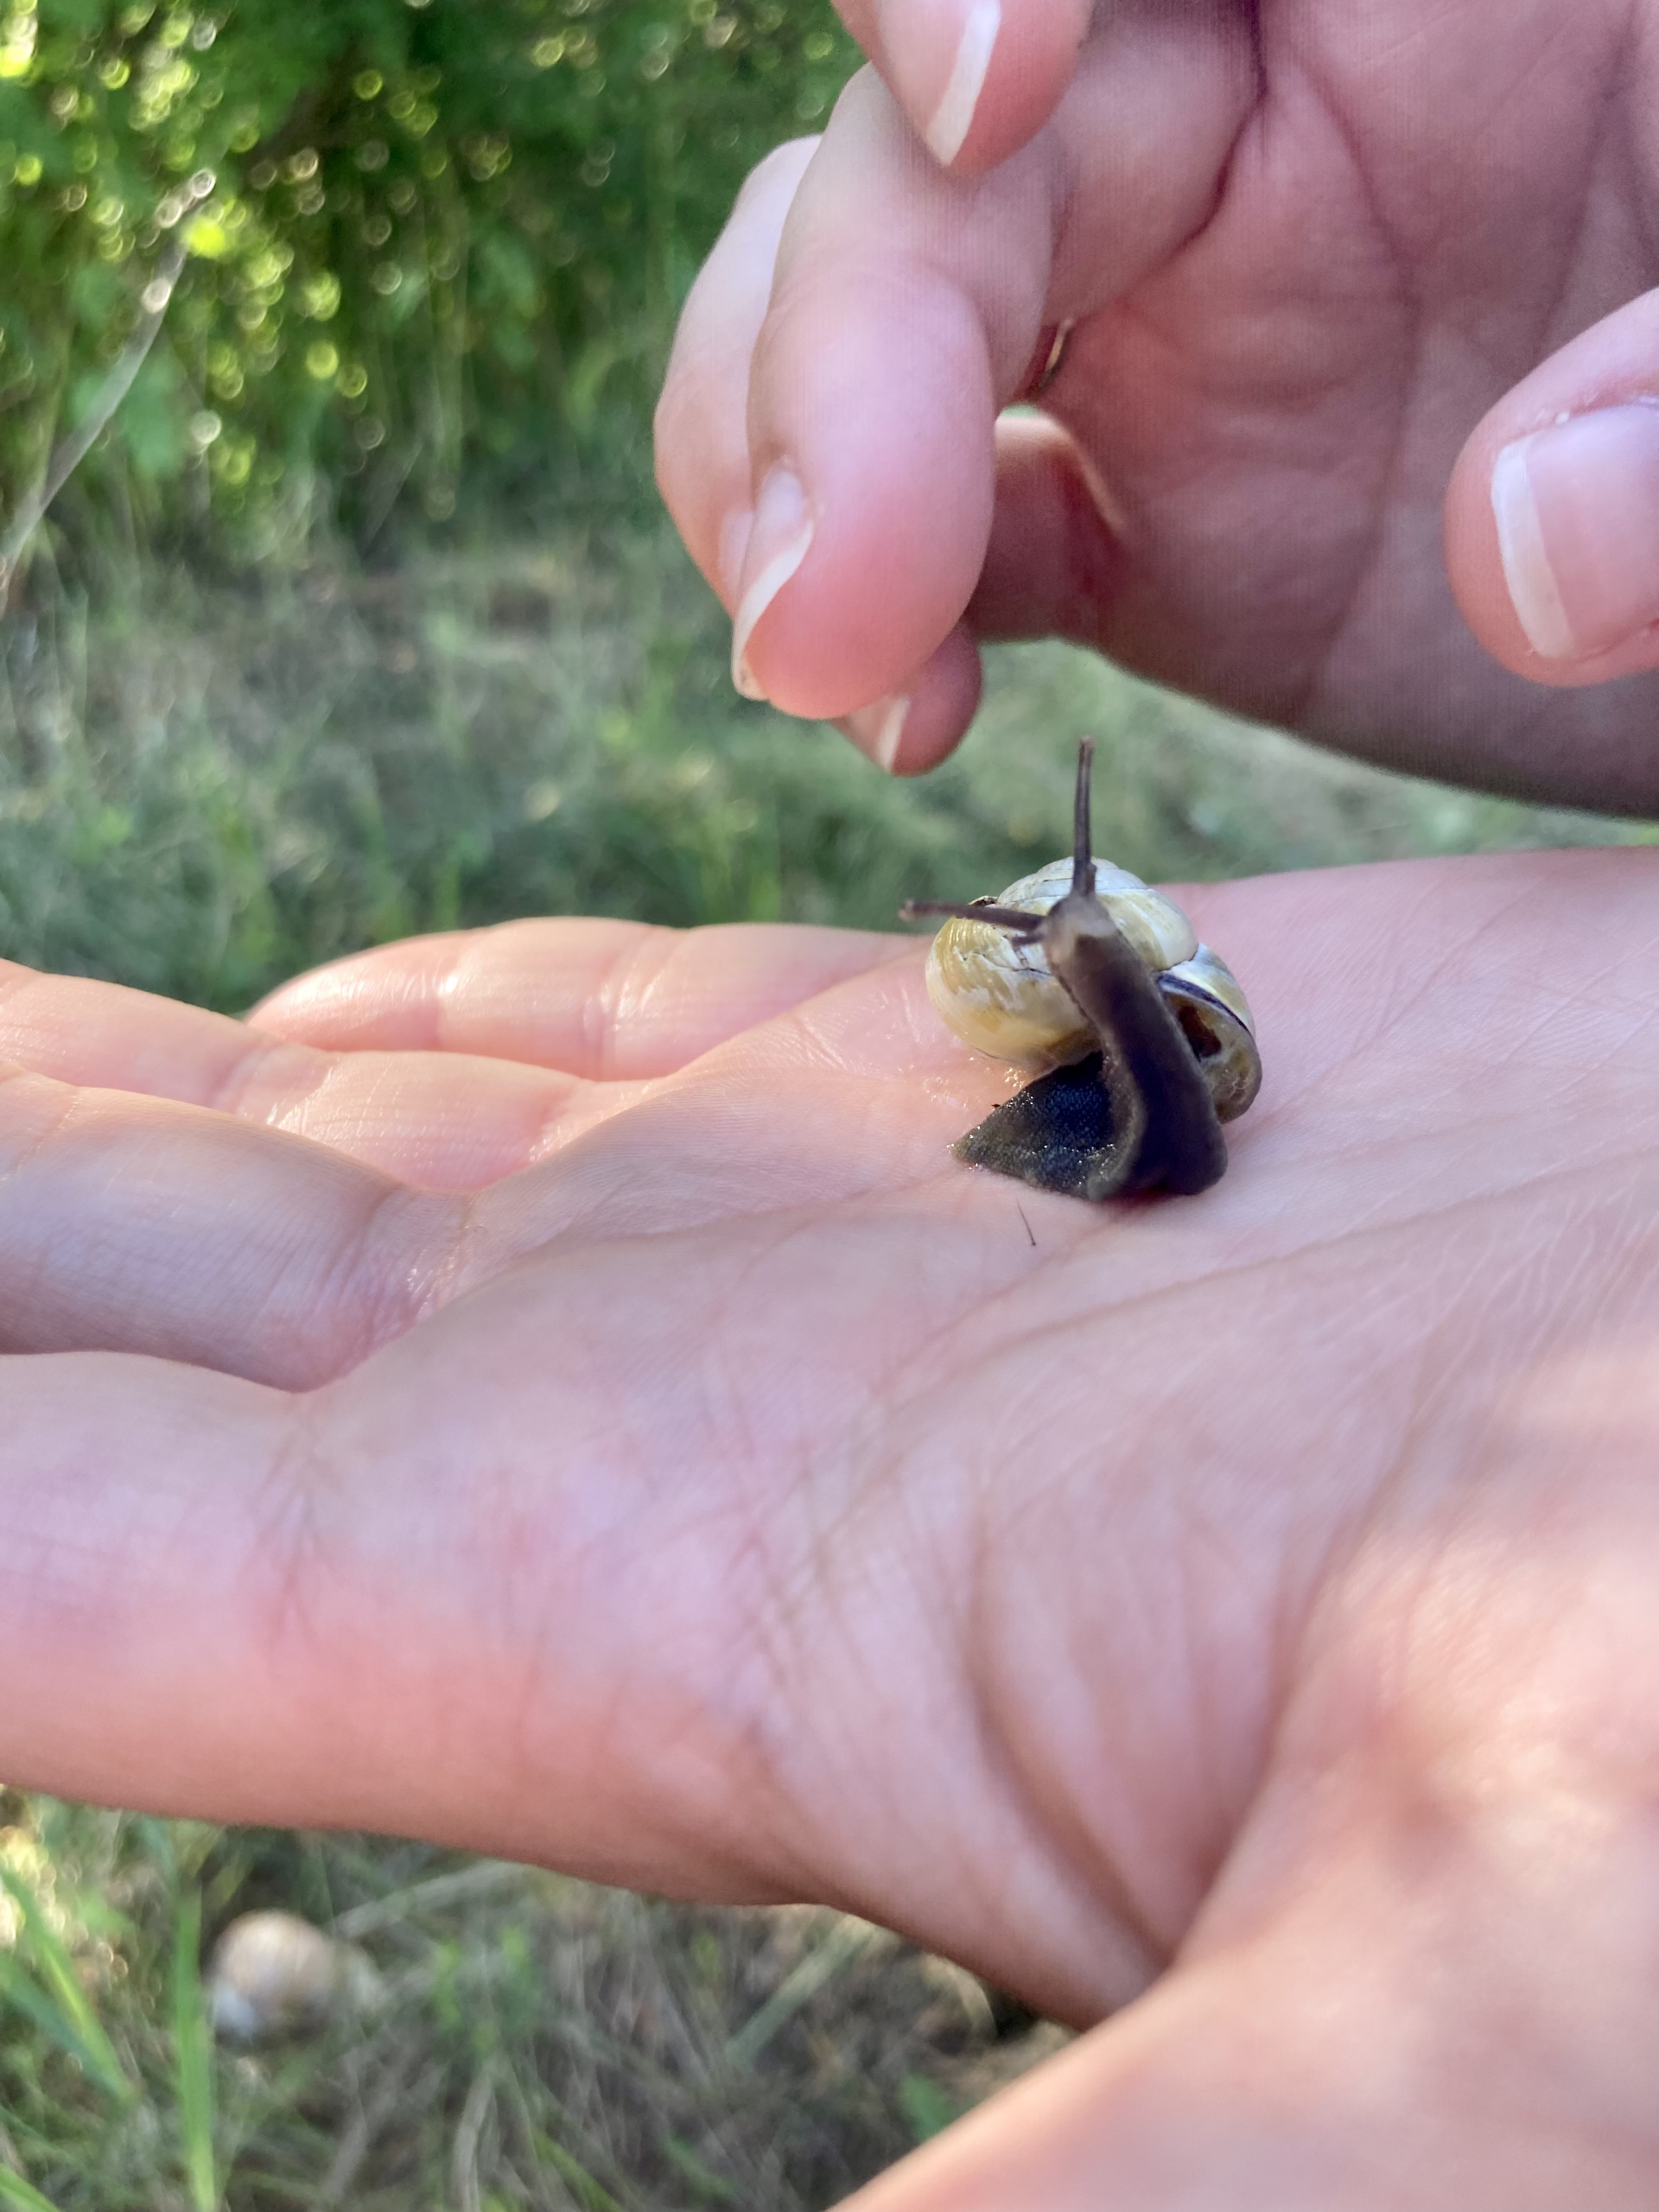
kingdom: Animalia
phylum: Mollusca
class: Gastropoda
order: Stylommatophora
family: Helicidae
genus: Cepaea
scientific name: Cepaea nemoralis
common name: Lundsnegl
